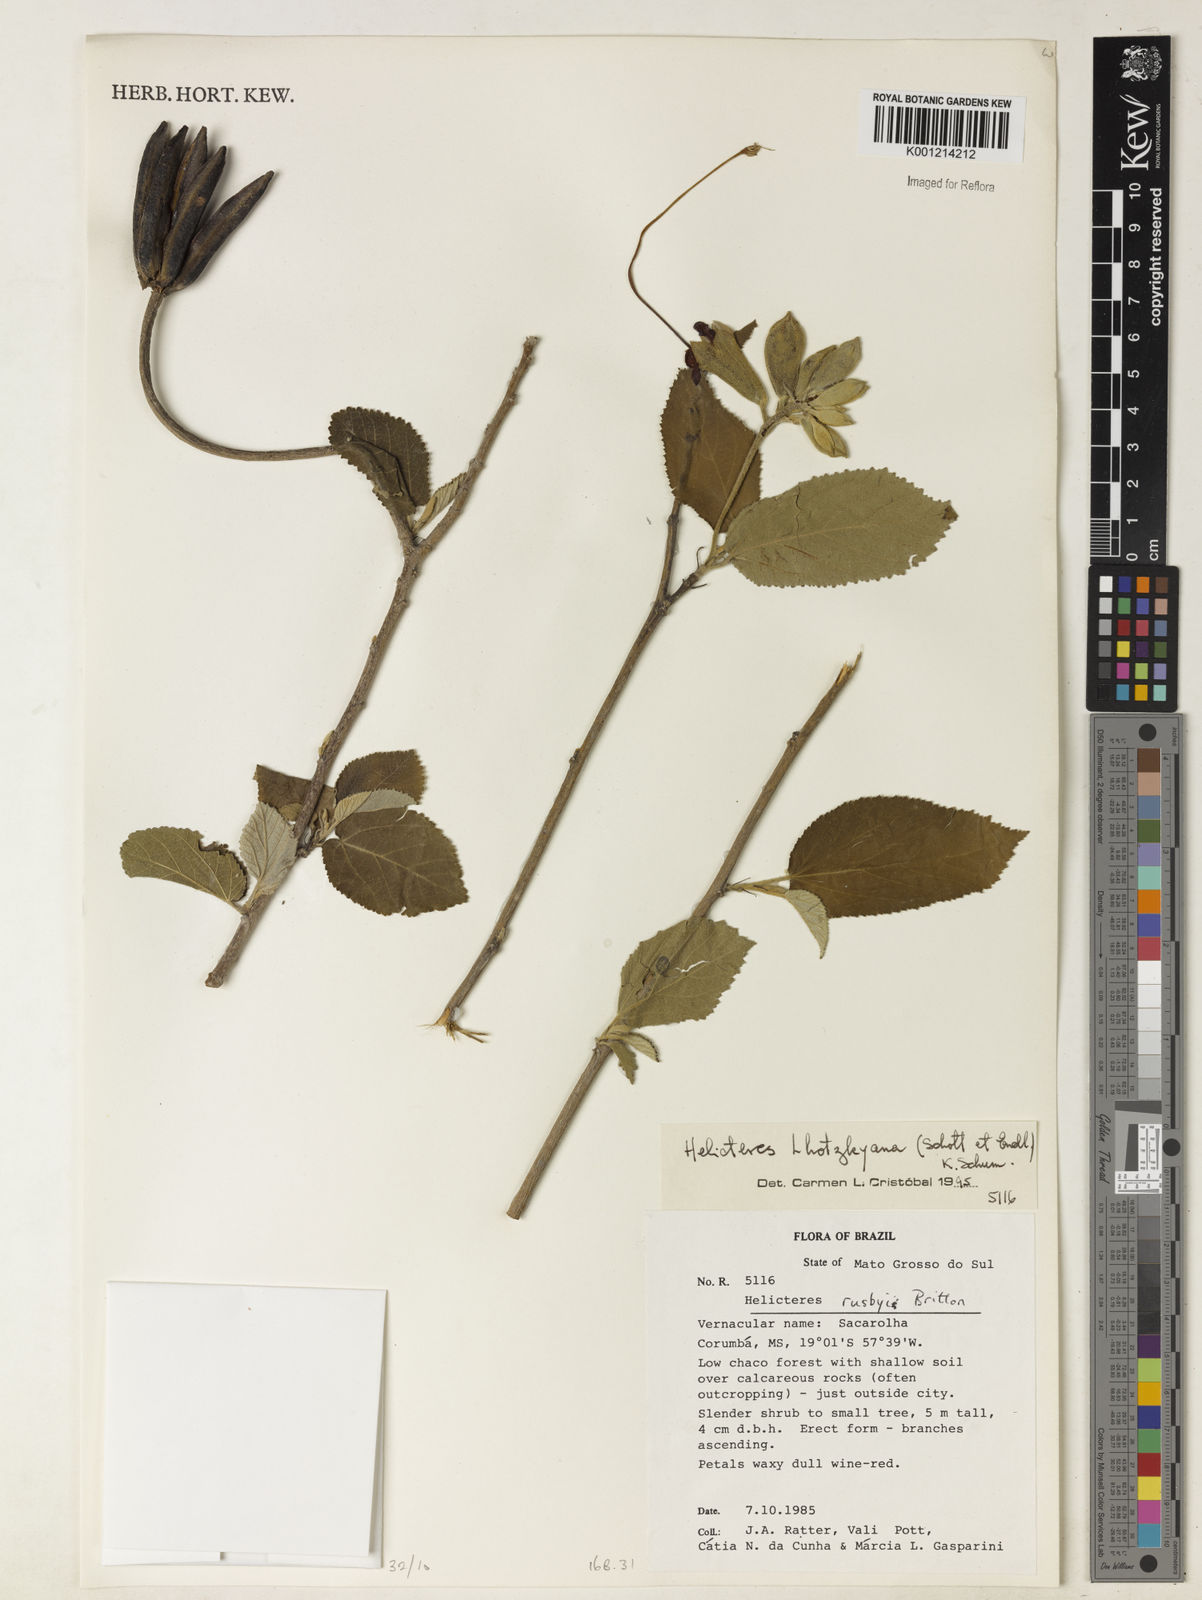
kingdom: Plantae
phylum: Tracheophyta
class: Magnoliopsida
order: Malvales
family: Malvaceae
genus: Helicteres
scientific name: Helicteres lhotzkyana
